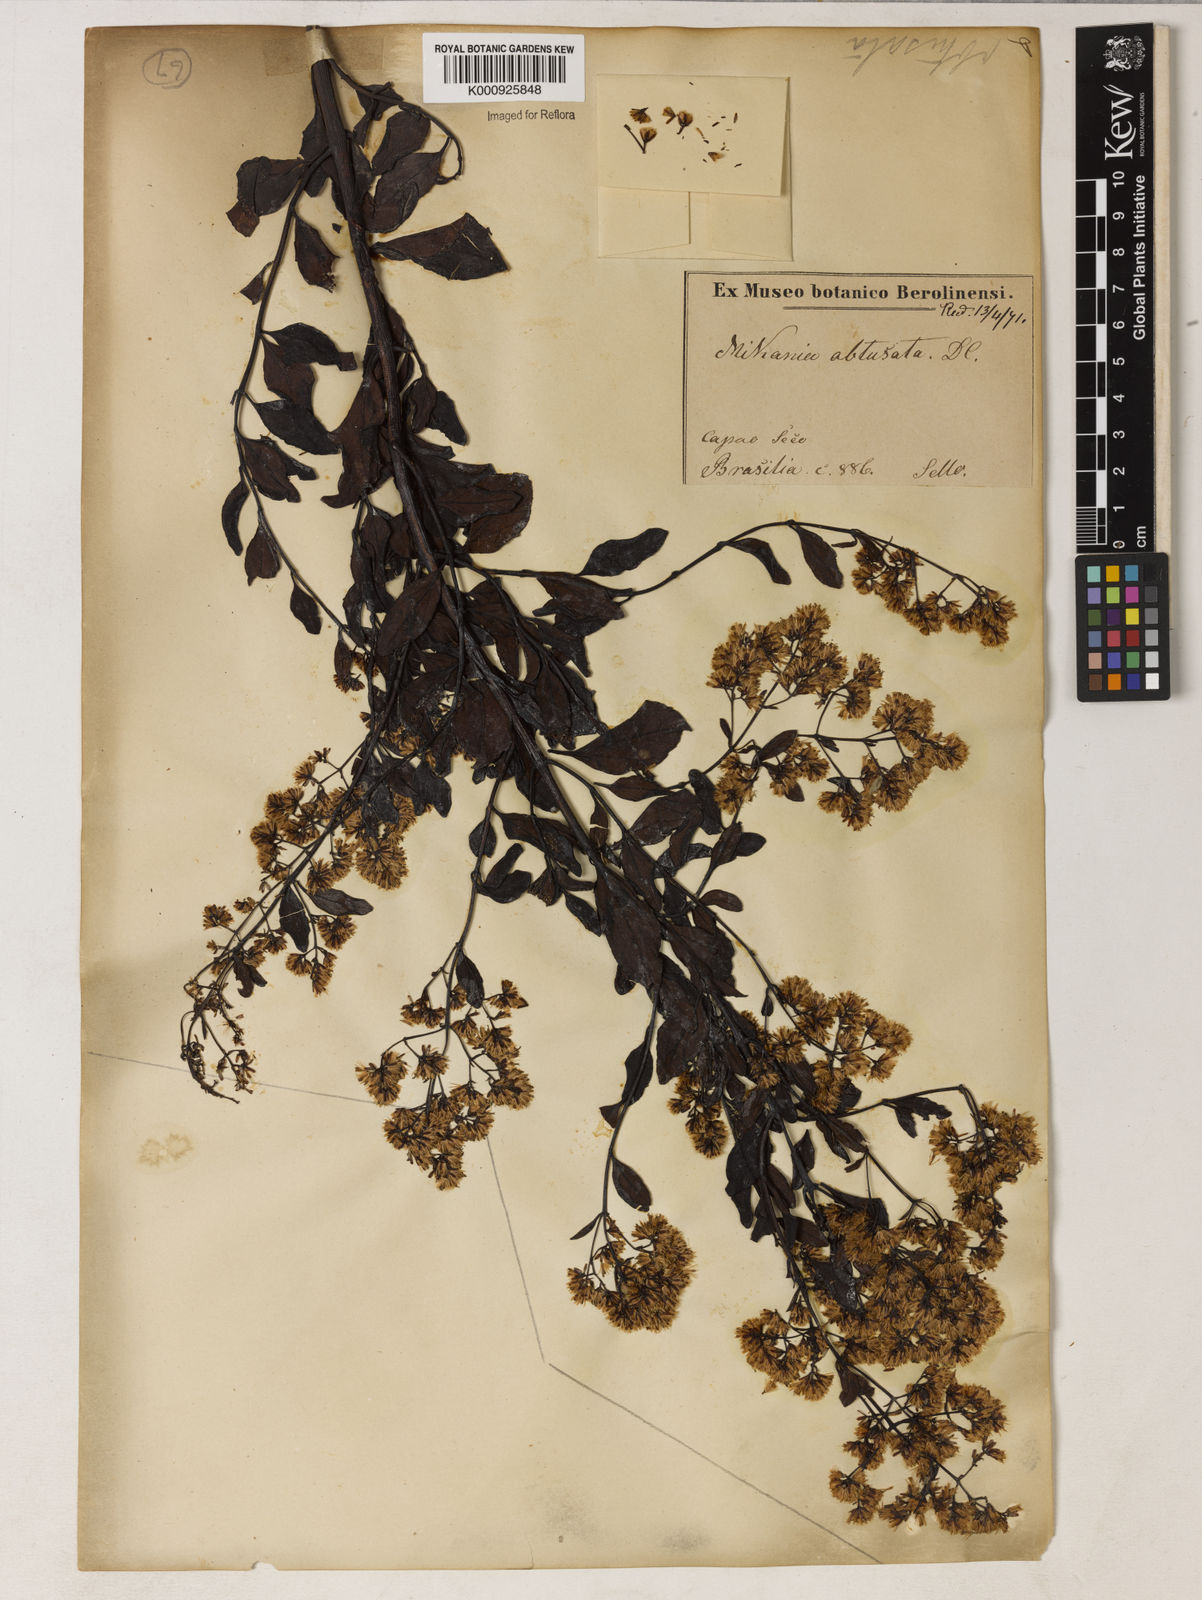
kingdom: Plantae
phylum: Tracheophyta
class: Magnoliopsida
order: Asterales
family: Asteraceae
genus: Mikania
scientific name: Mikania obtusata
